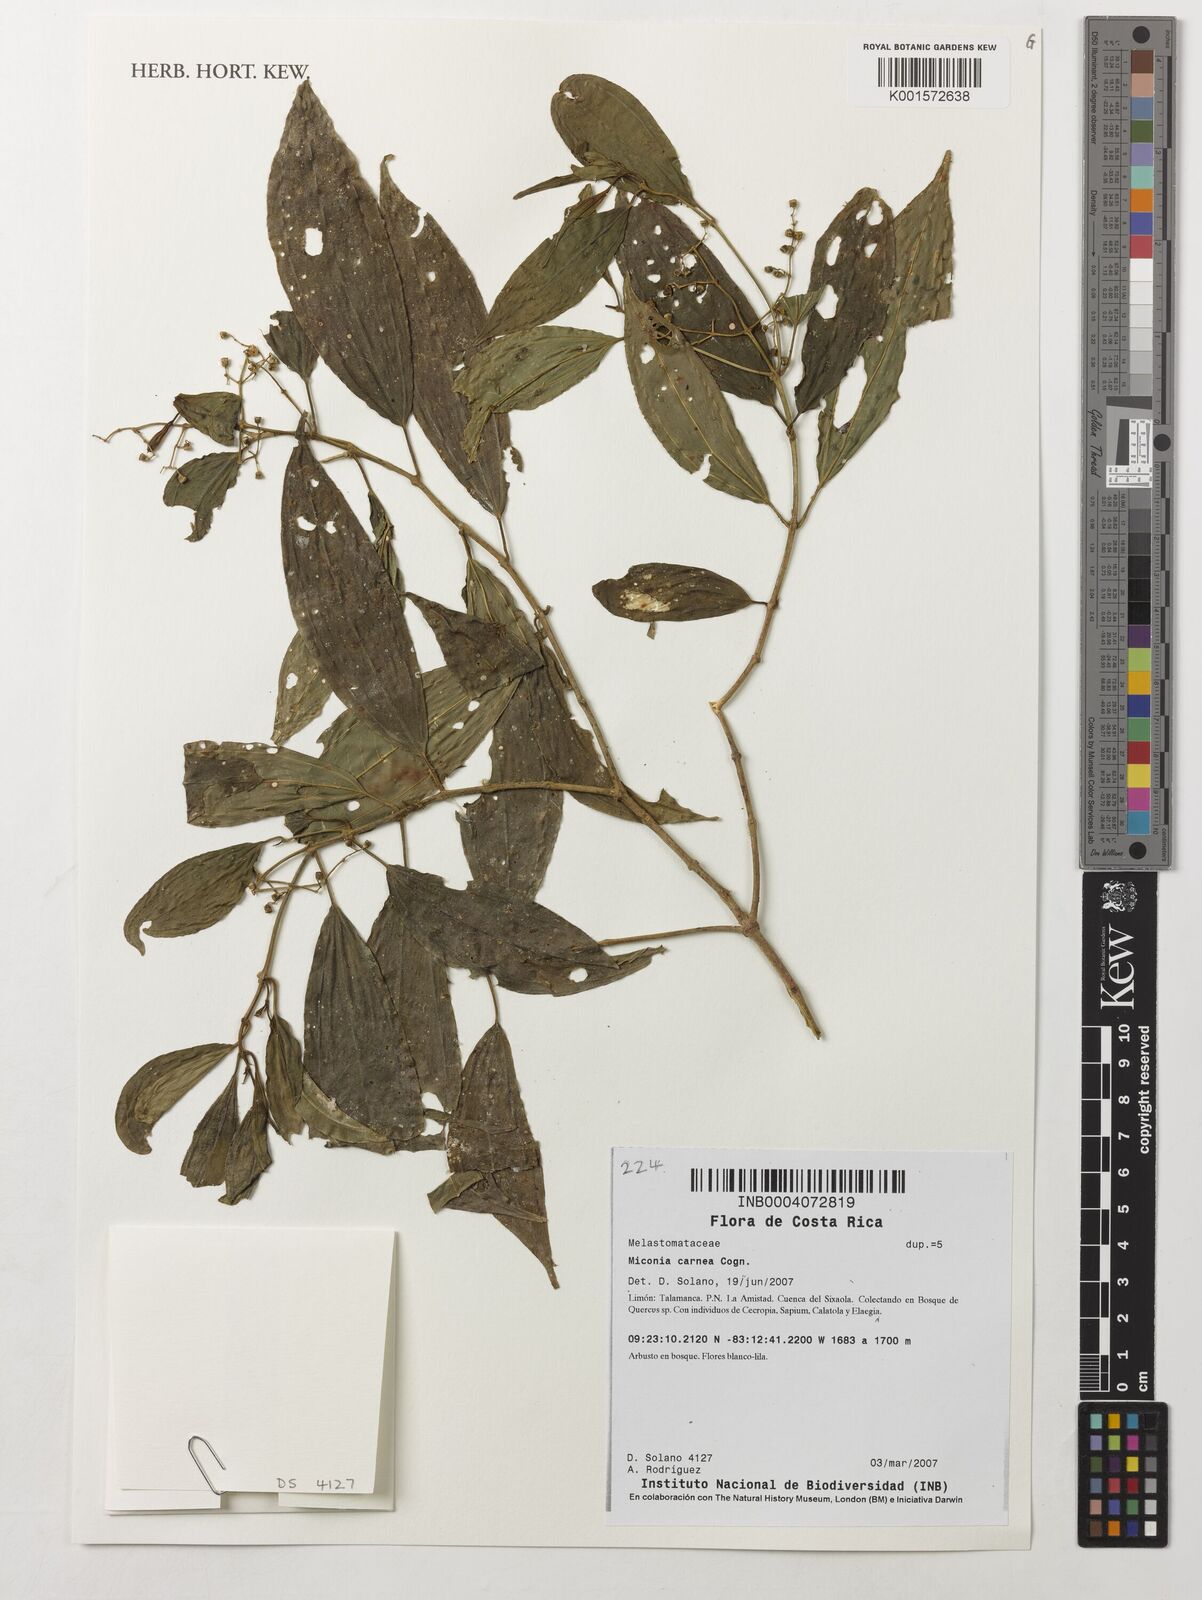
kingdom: Plantae
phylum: Tracheophyta
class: Magnoliopsida
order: Myrtales
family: Melastomataceae
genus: Miconia
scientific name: Miconia carnea
